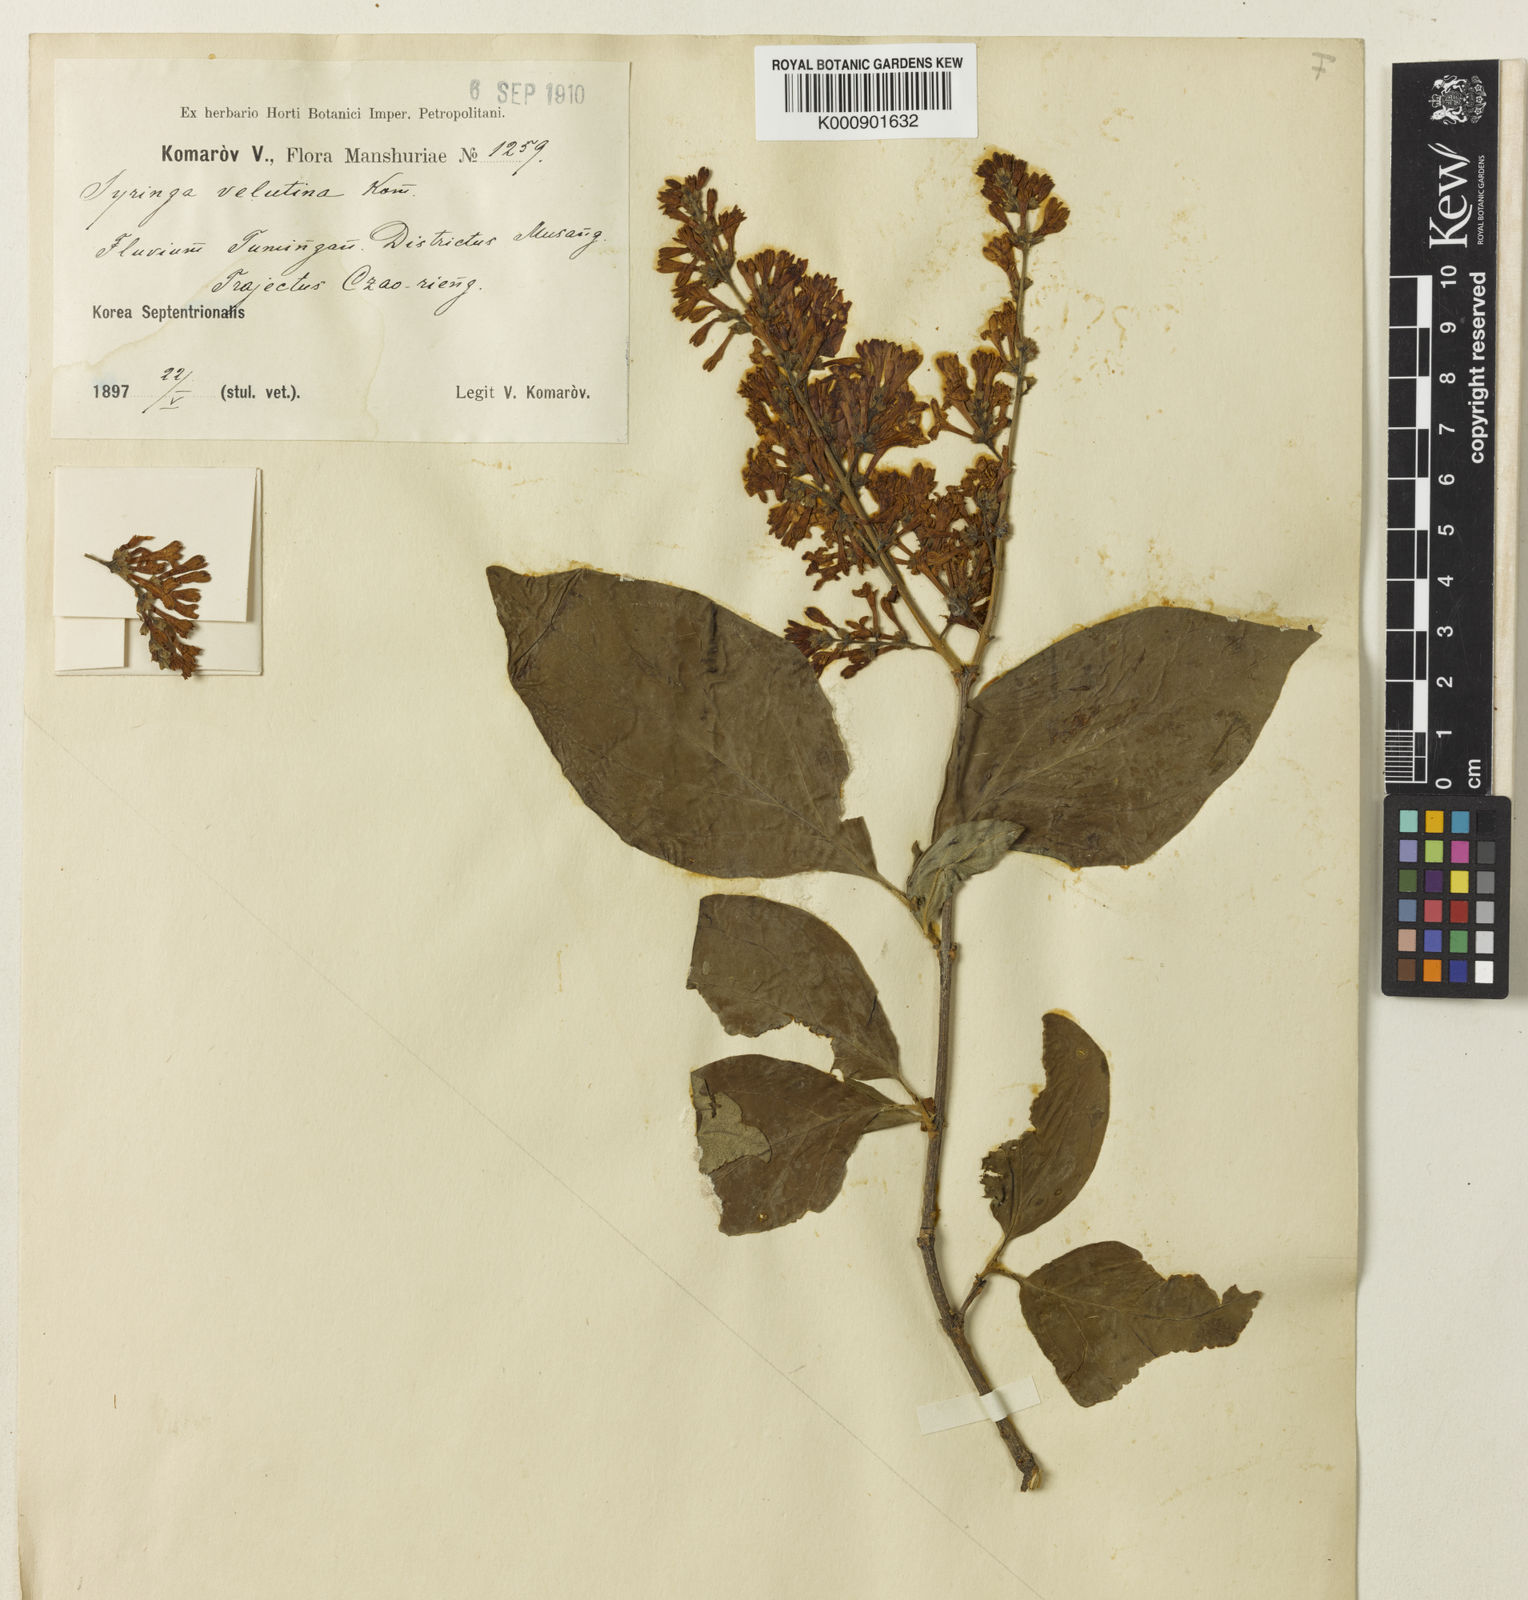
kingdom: Plantae
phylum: Tracheophyta
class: Magnoliopsida
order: Lamiales
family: Oleaceae
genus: Syringa
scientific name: Syringa pubescens
